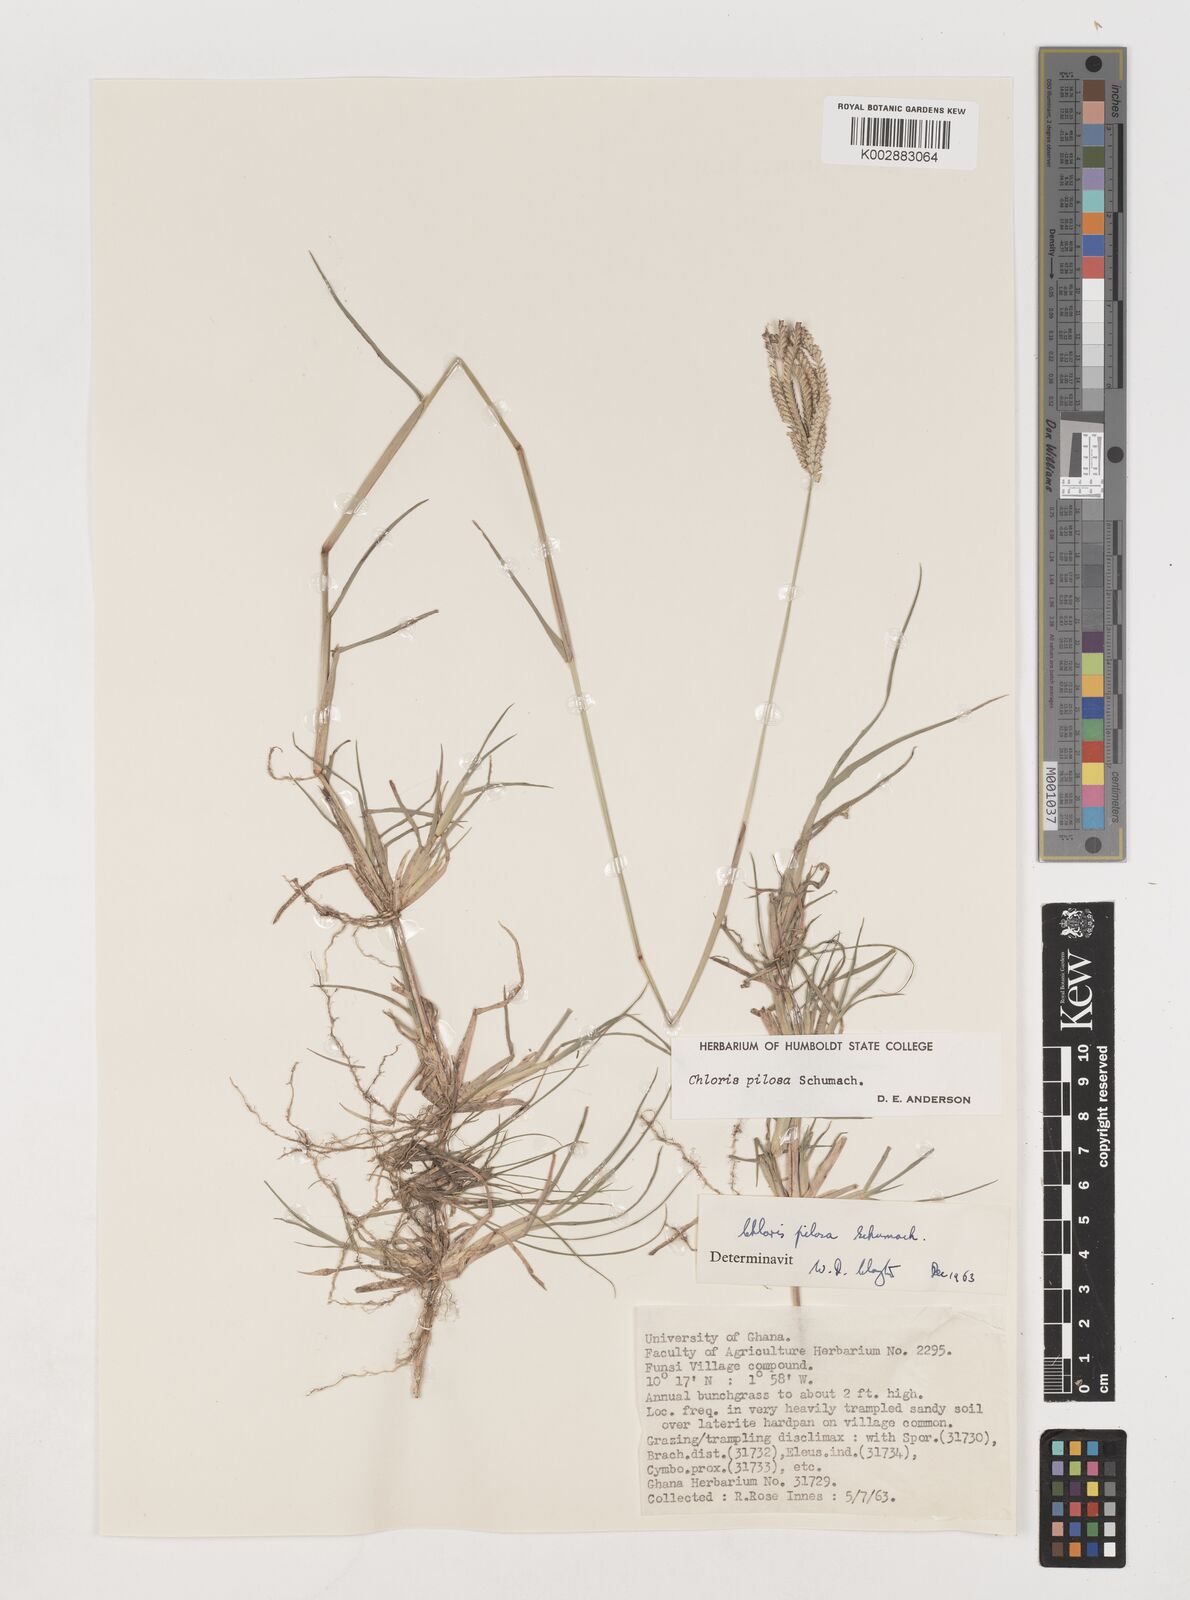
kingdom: Plantae
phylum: Tracheophyta
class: Liliopsida
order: Poales
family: Poaceae
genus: Chloris
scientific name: Chloris pilosa
